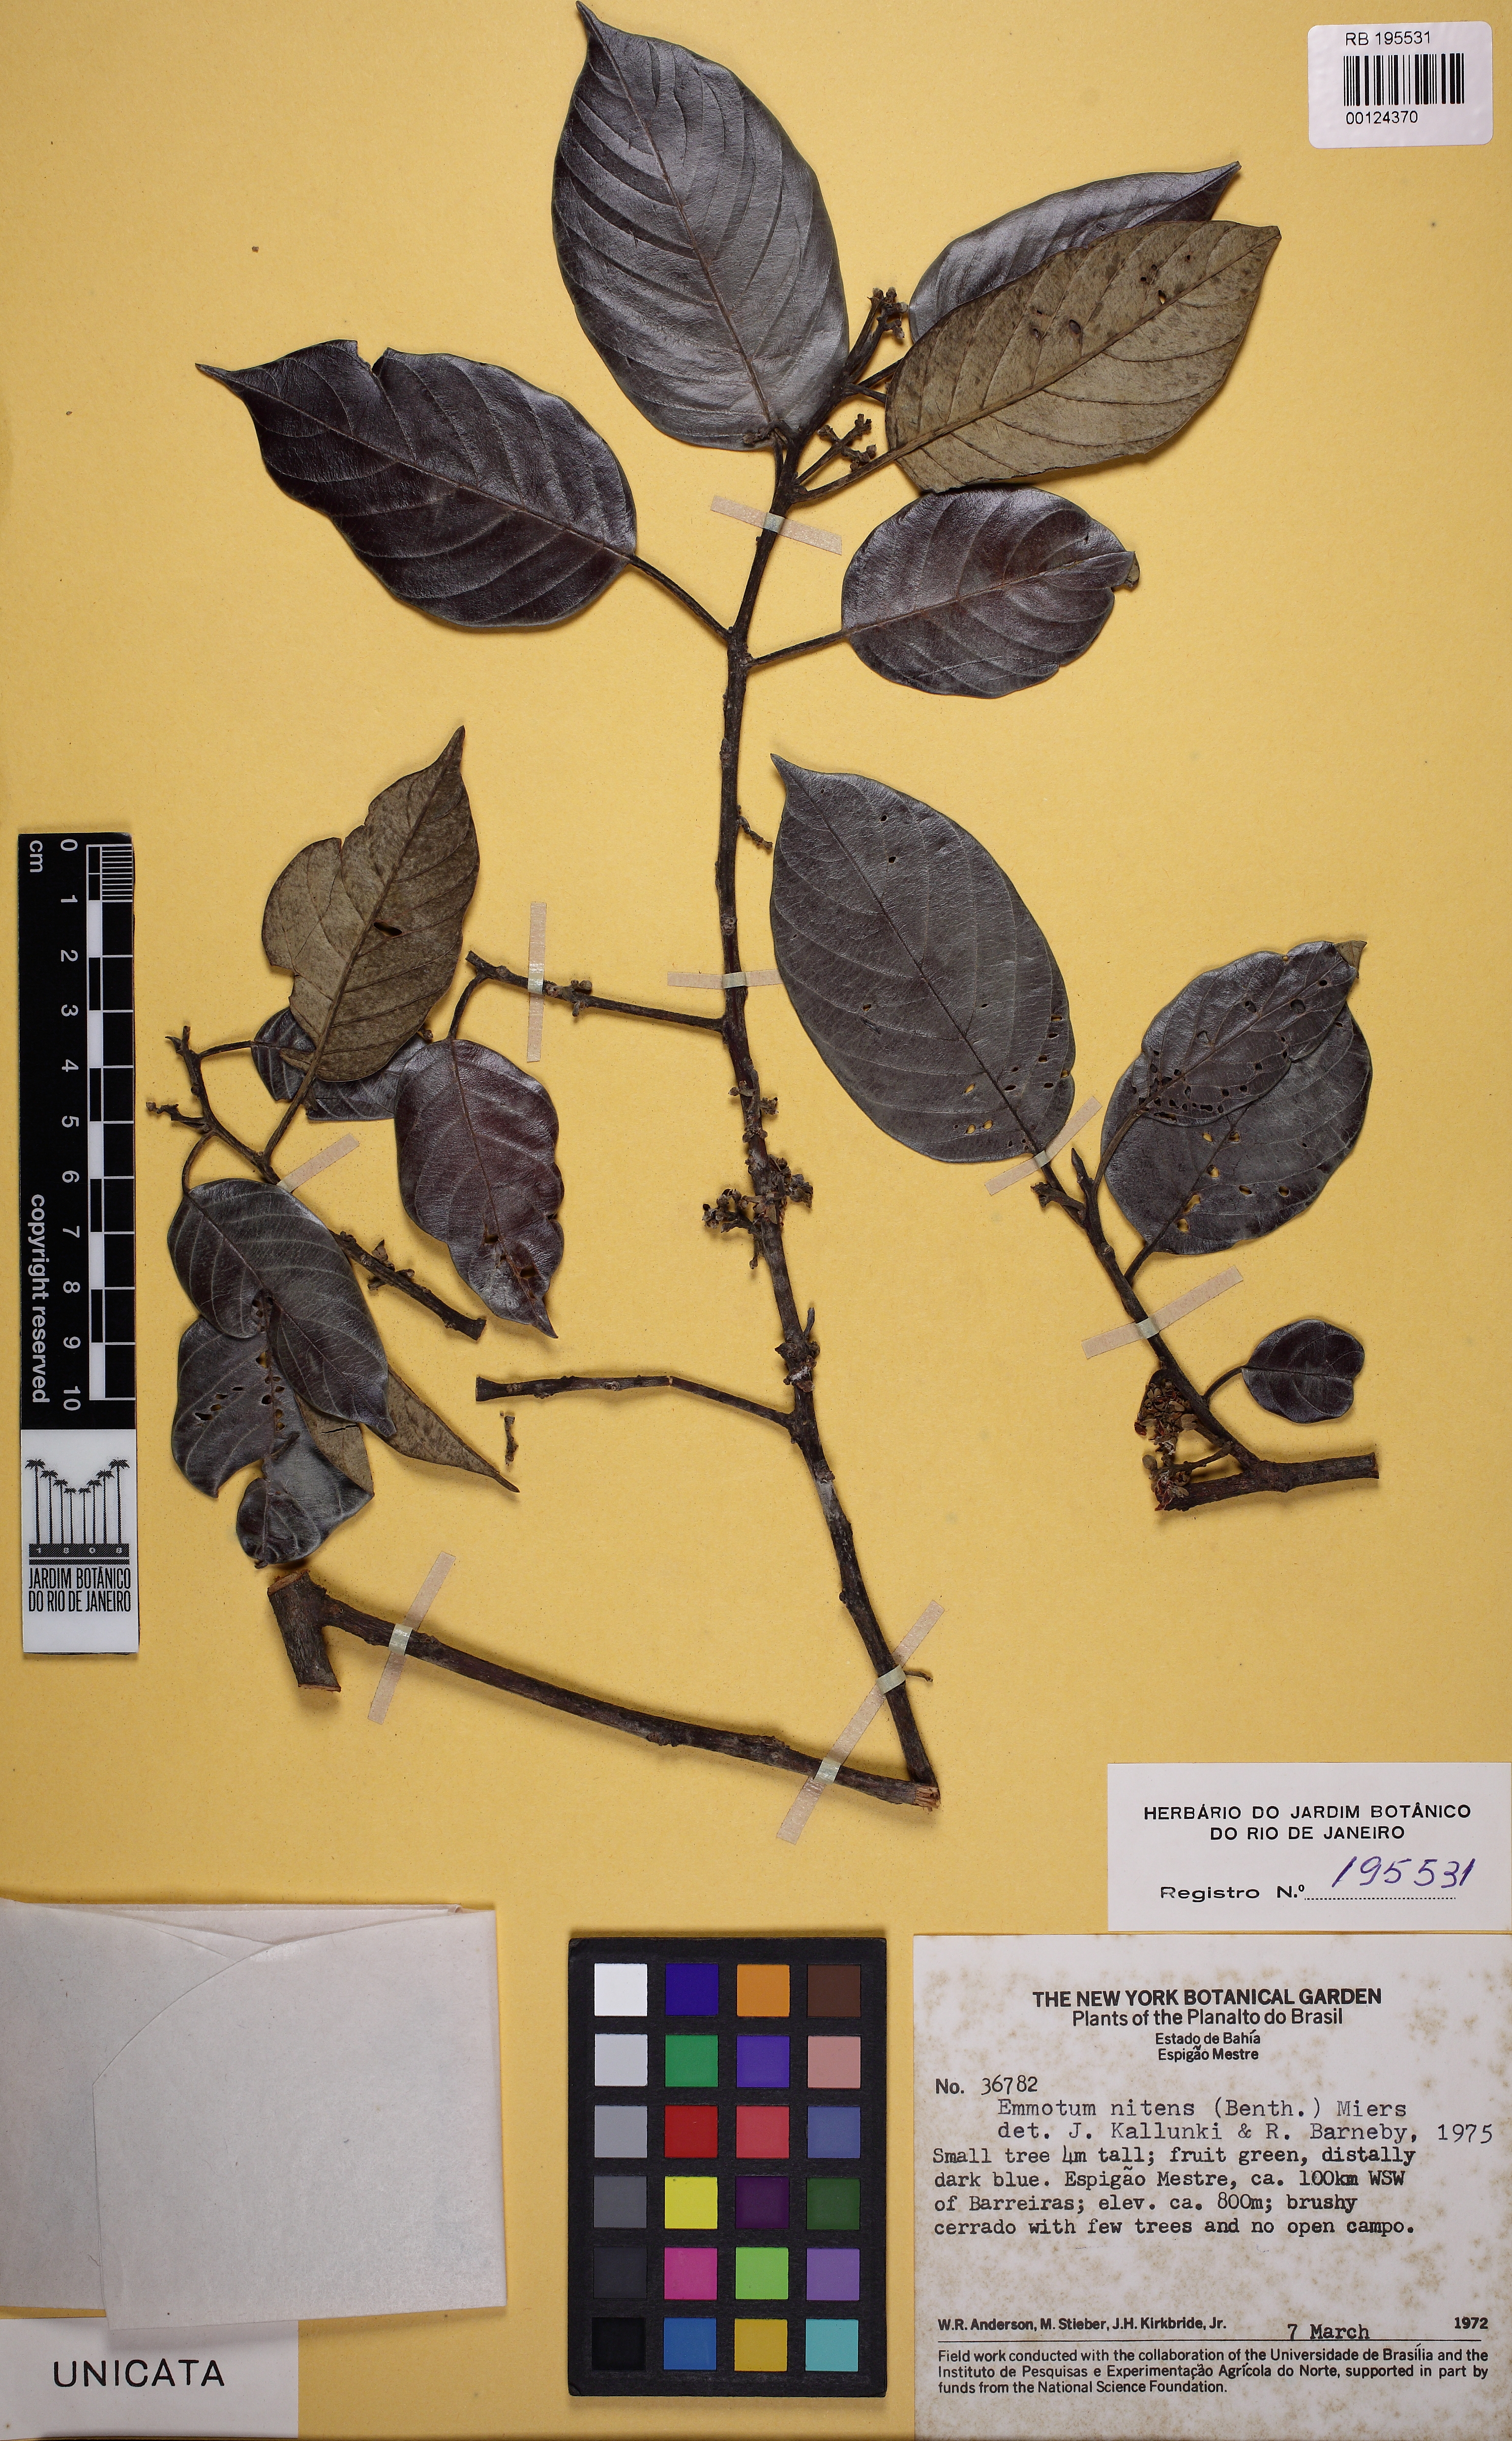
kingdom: Plantae
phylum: Tracheophyta
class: Magnoliopsida
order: Metteniusales
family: Metteniusaceae
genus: Emmotum
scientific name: Emmotum nitens
